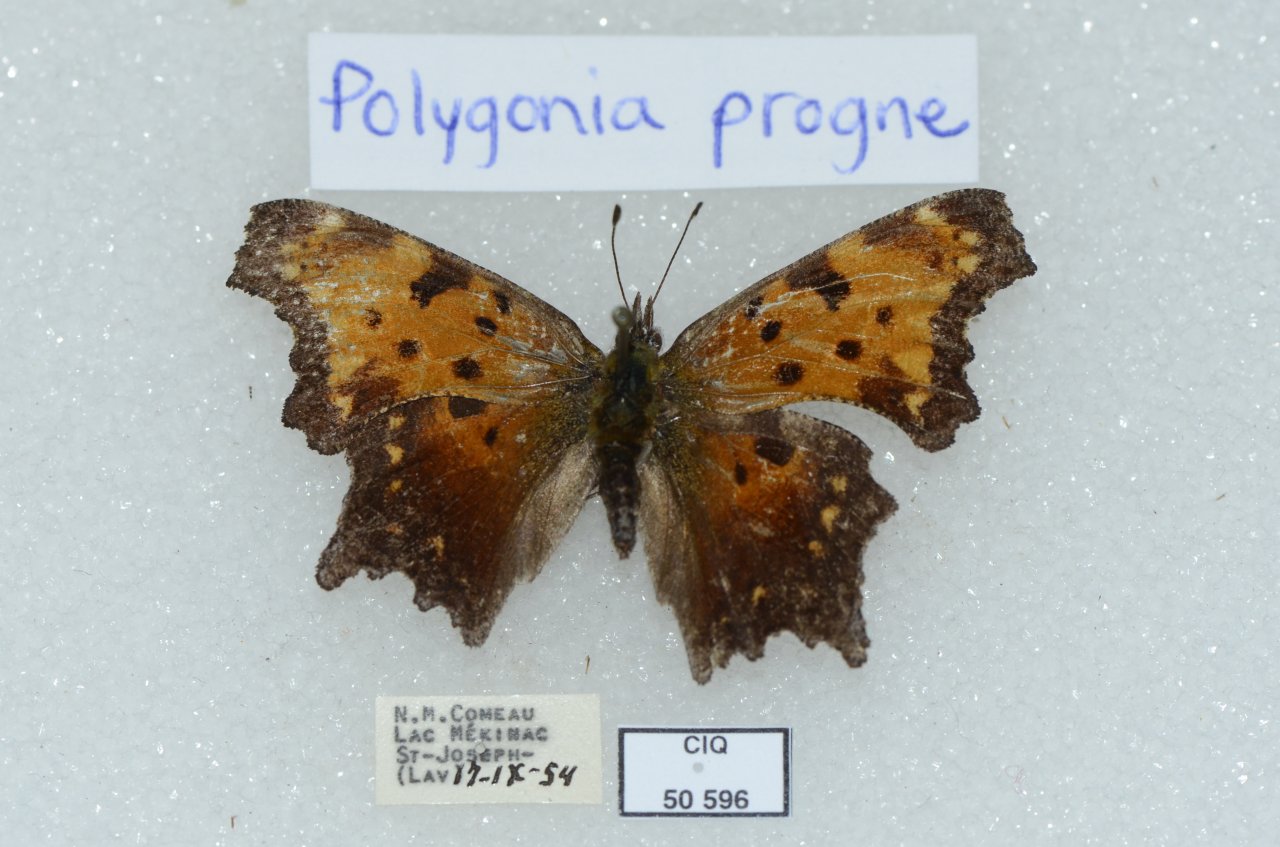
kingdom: Animalia
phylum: Arthropoda
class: Insecta
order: Lepidoptera
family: Nymphalidae
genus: Polygonia
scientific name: Polygonia progne
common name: Gray Comma
